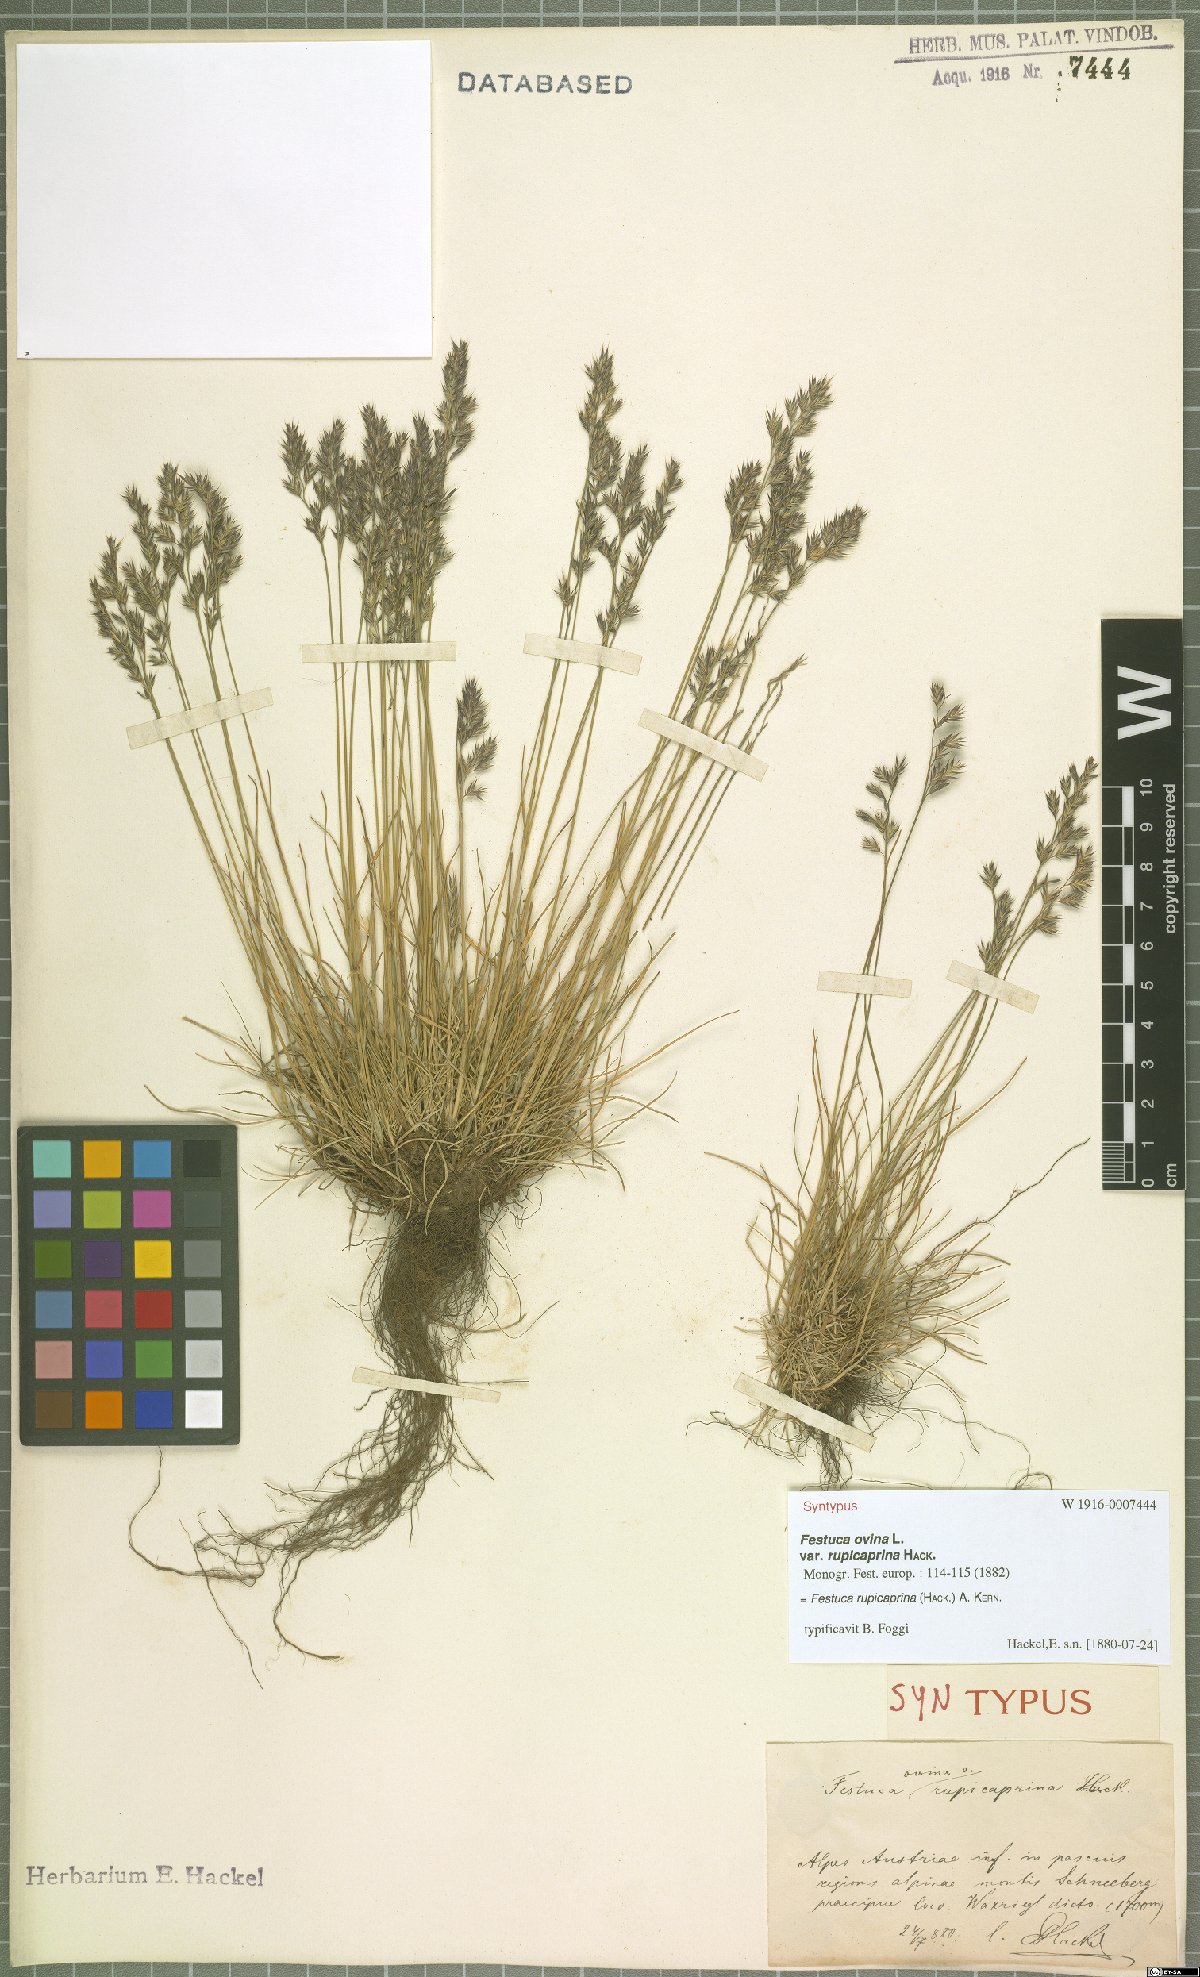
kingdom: Plantae
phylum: Tracheophyta
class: Liliopsida
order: Poales
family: Poaceae
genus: Festuca
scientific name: Festuca rupicaprina
